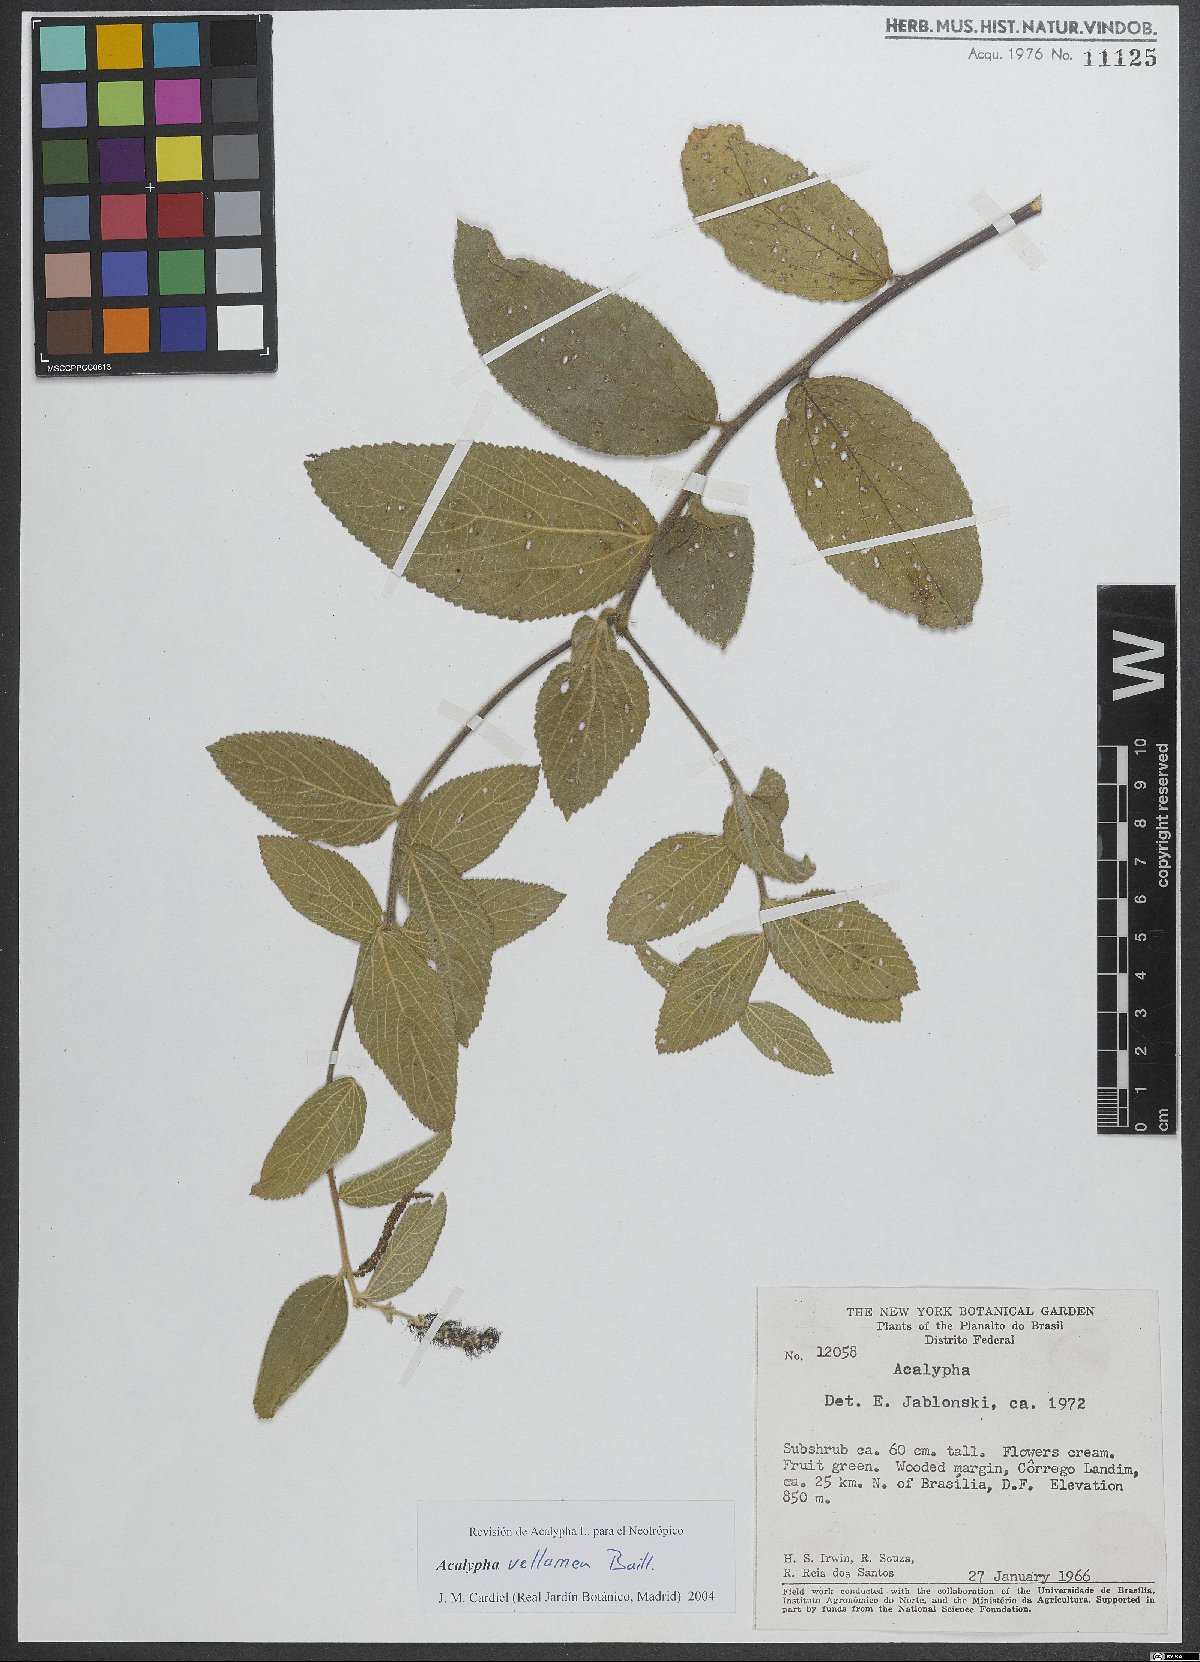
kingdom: Plantae
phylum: Tracheophyta
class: Magnoliopsida
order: Malpighiales
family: Euphorbiaceae
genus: Acalypha
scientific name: Acalypha vellamea
